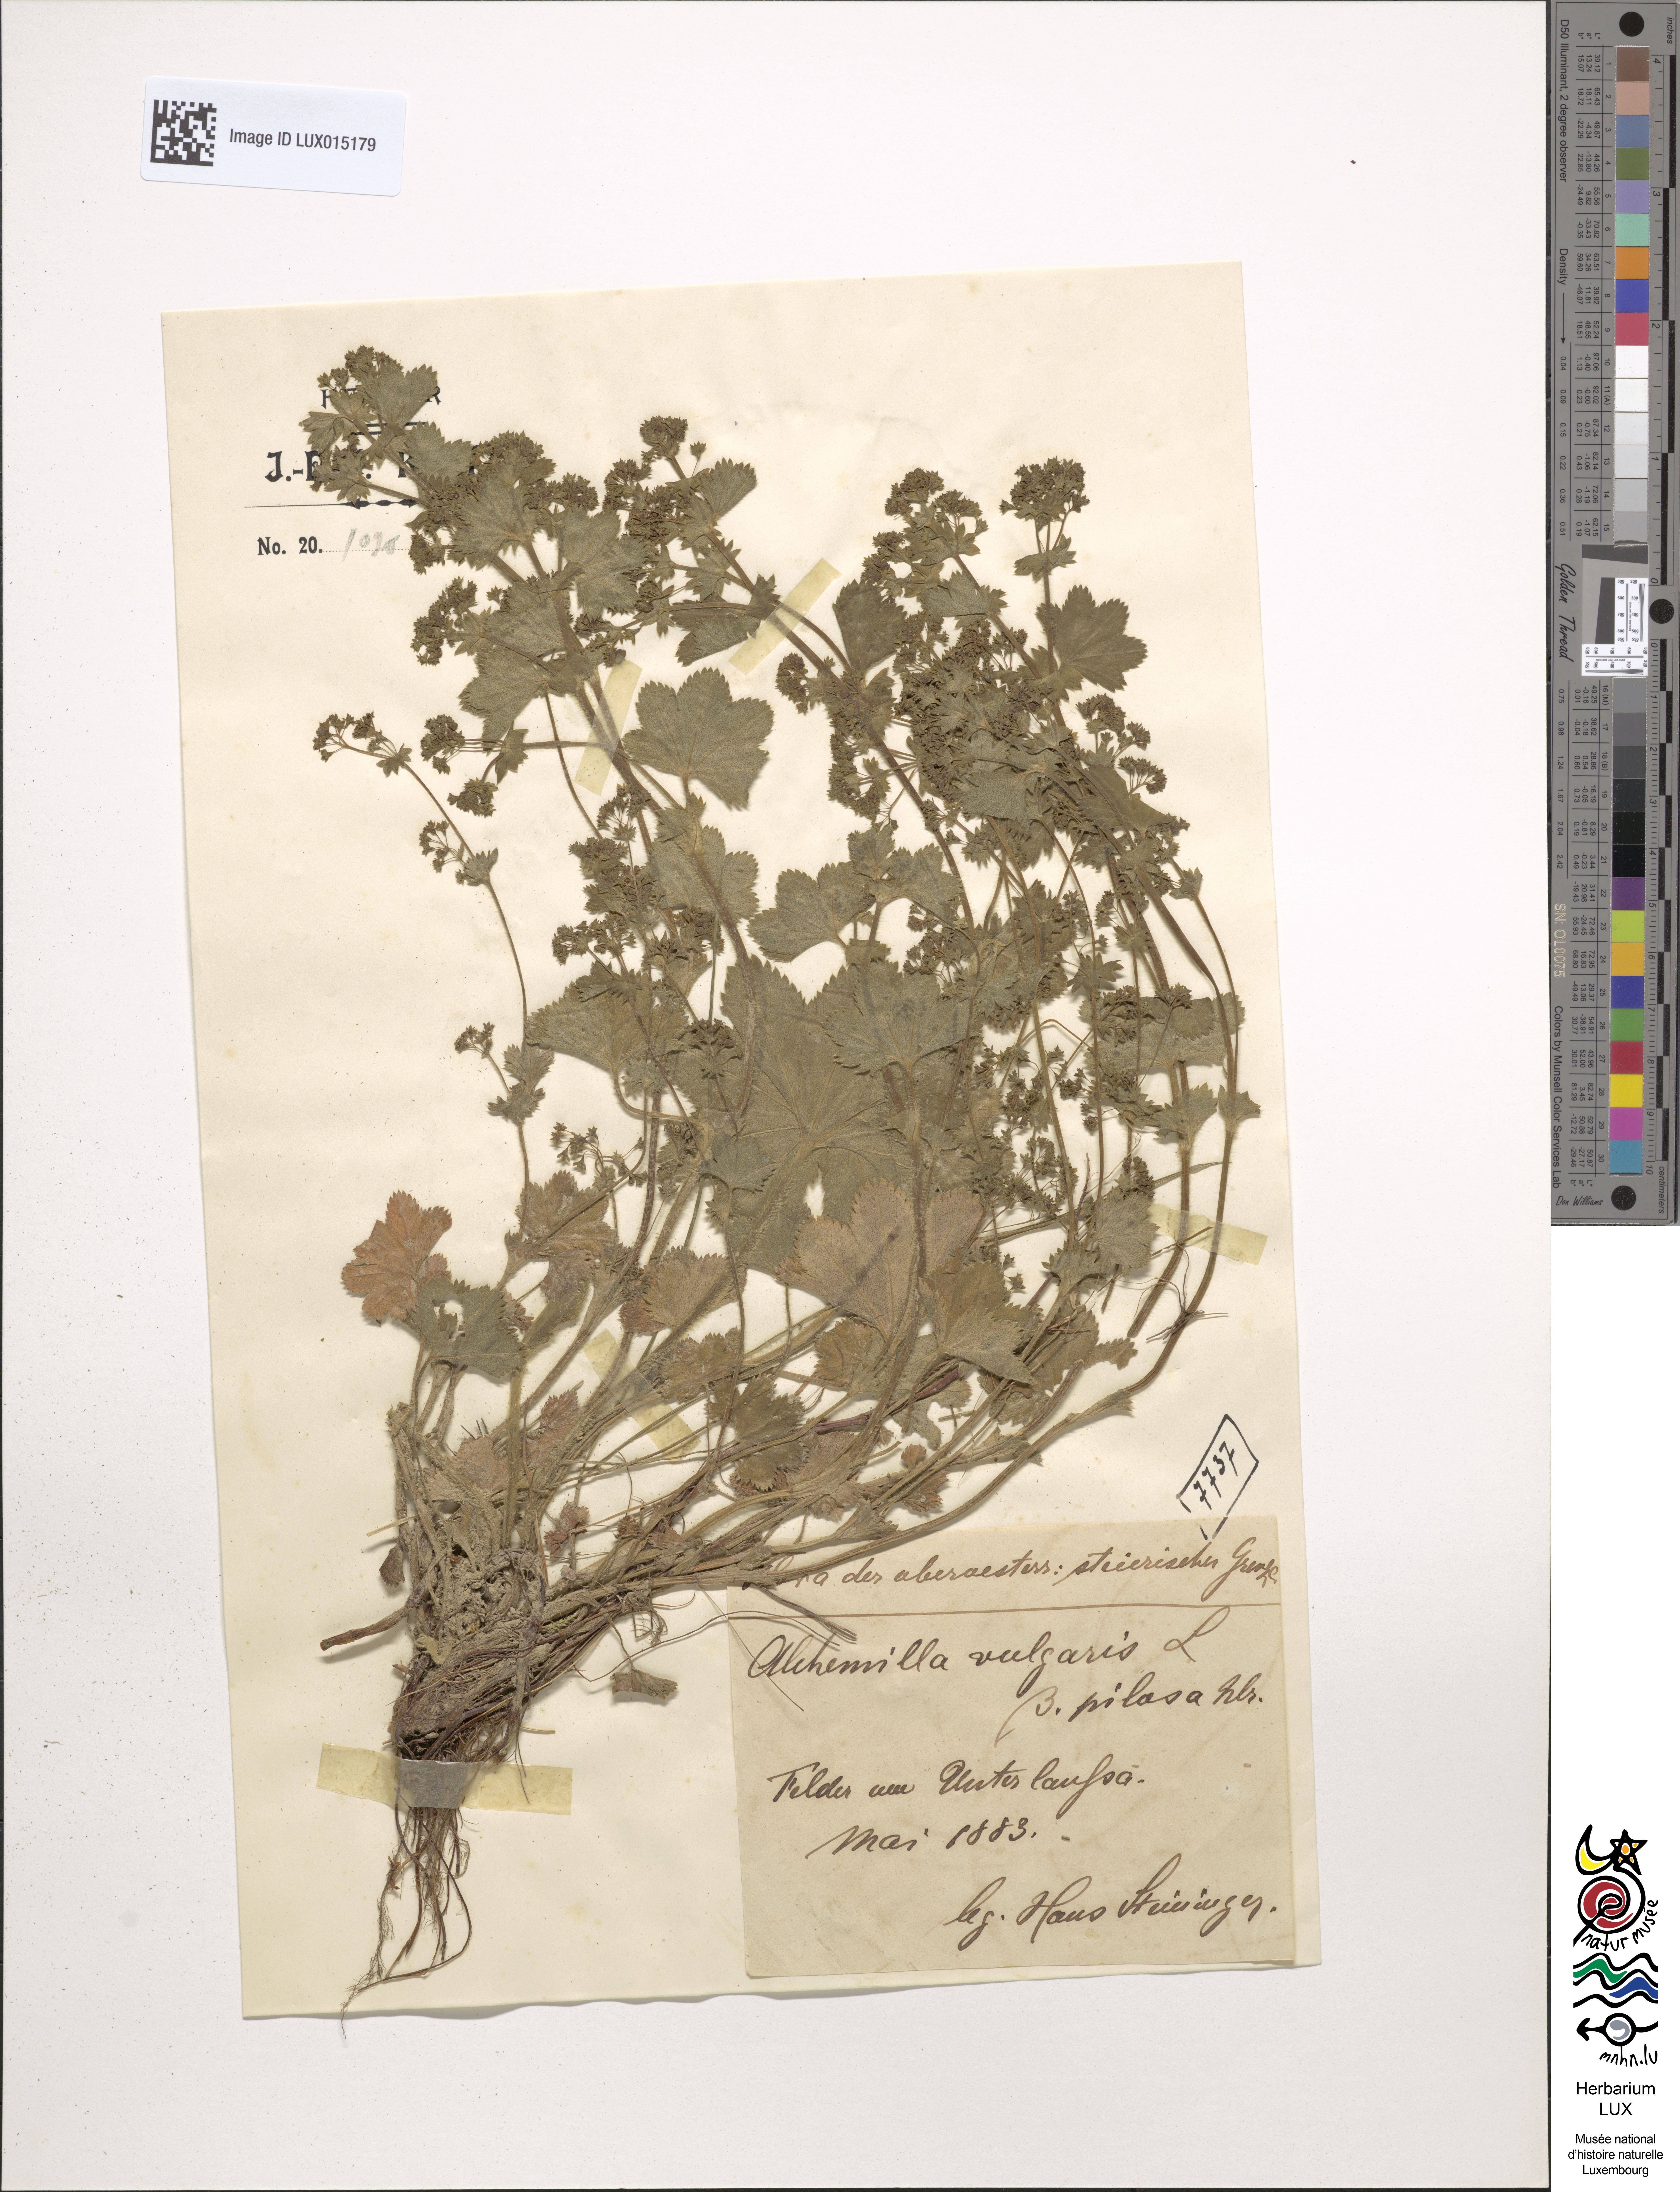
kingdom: Plantae
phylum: Tracheophyta
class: Magnoliopsida
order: Rosales
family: Rosaceae
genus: Alchemilla
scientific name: Alchemilla vulgaris
